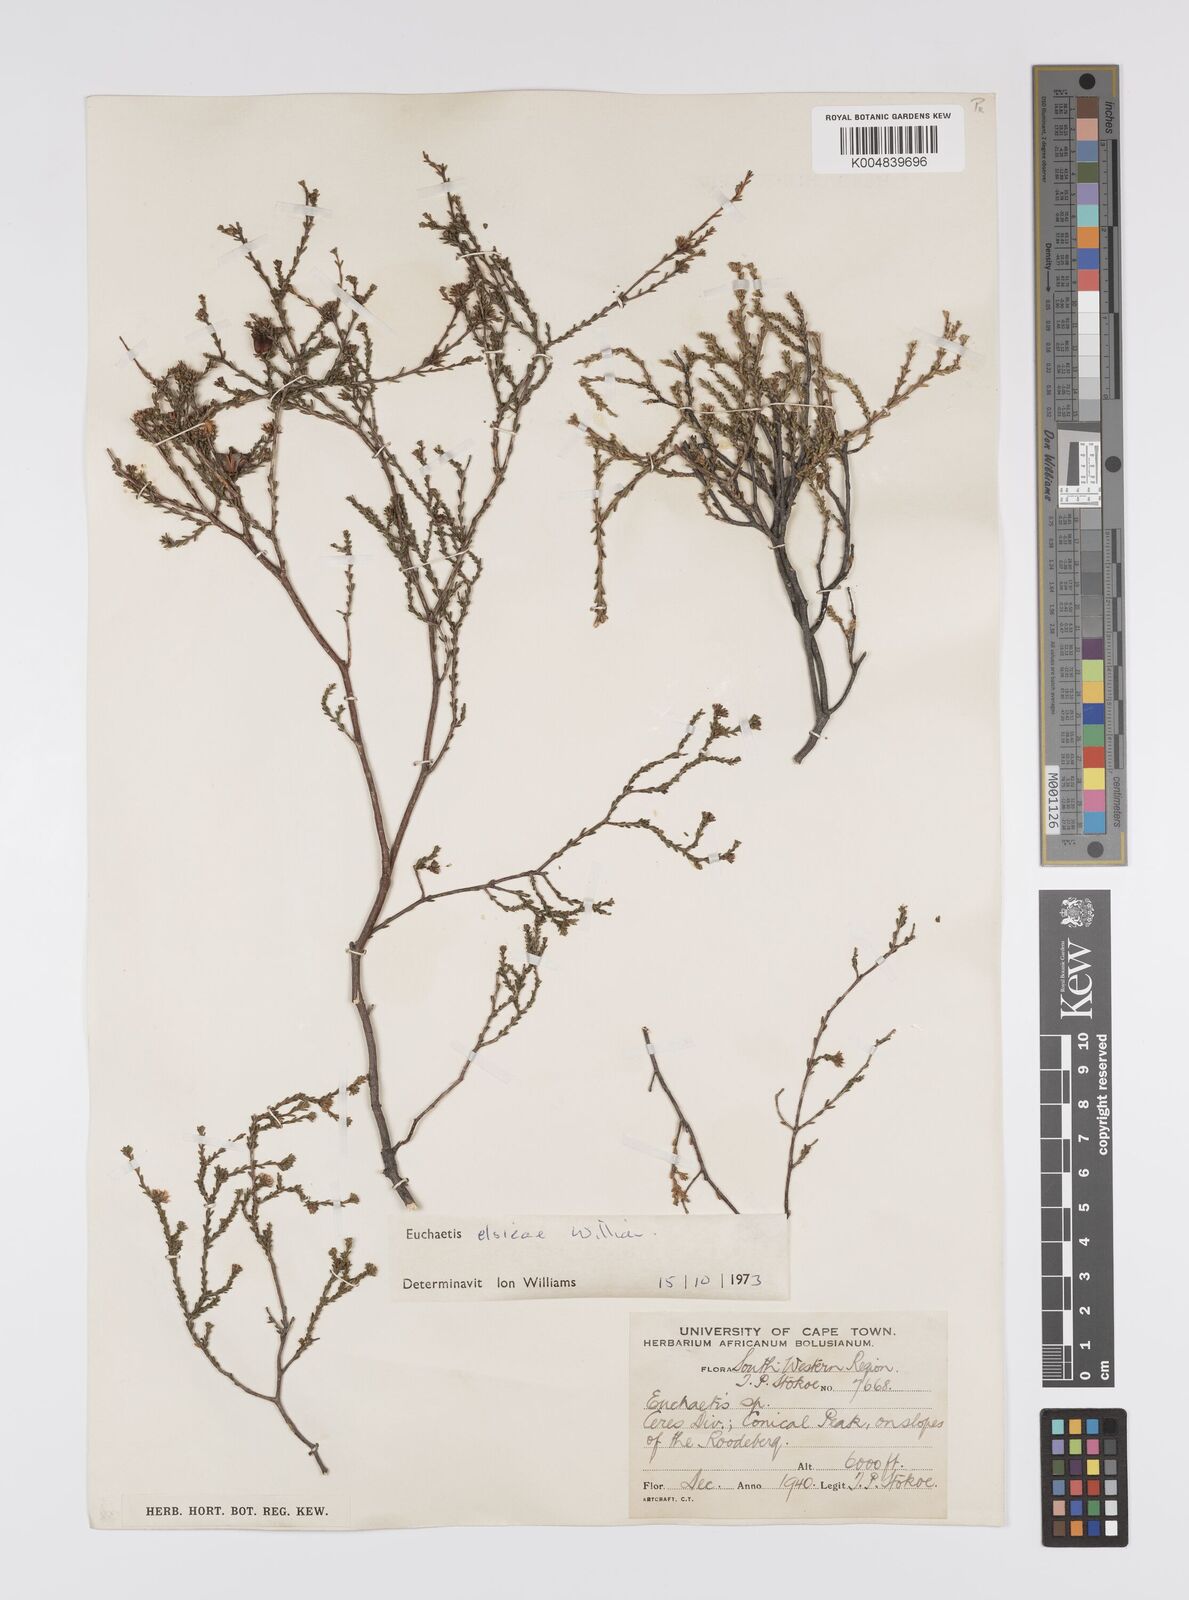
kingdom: Plantae
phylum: Tracheophyta
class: Magnoliopsida
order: Sapindales
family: Rutaceae
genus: Euchaetis
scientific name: Euchaetis elsieae
